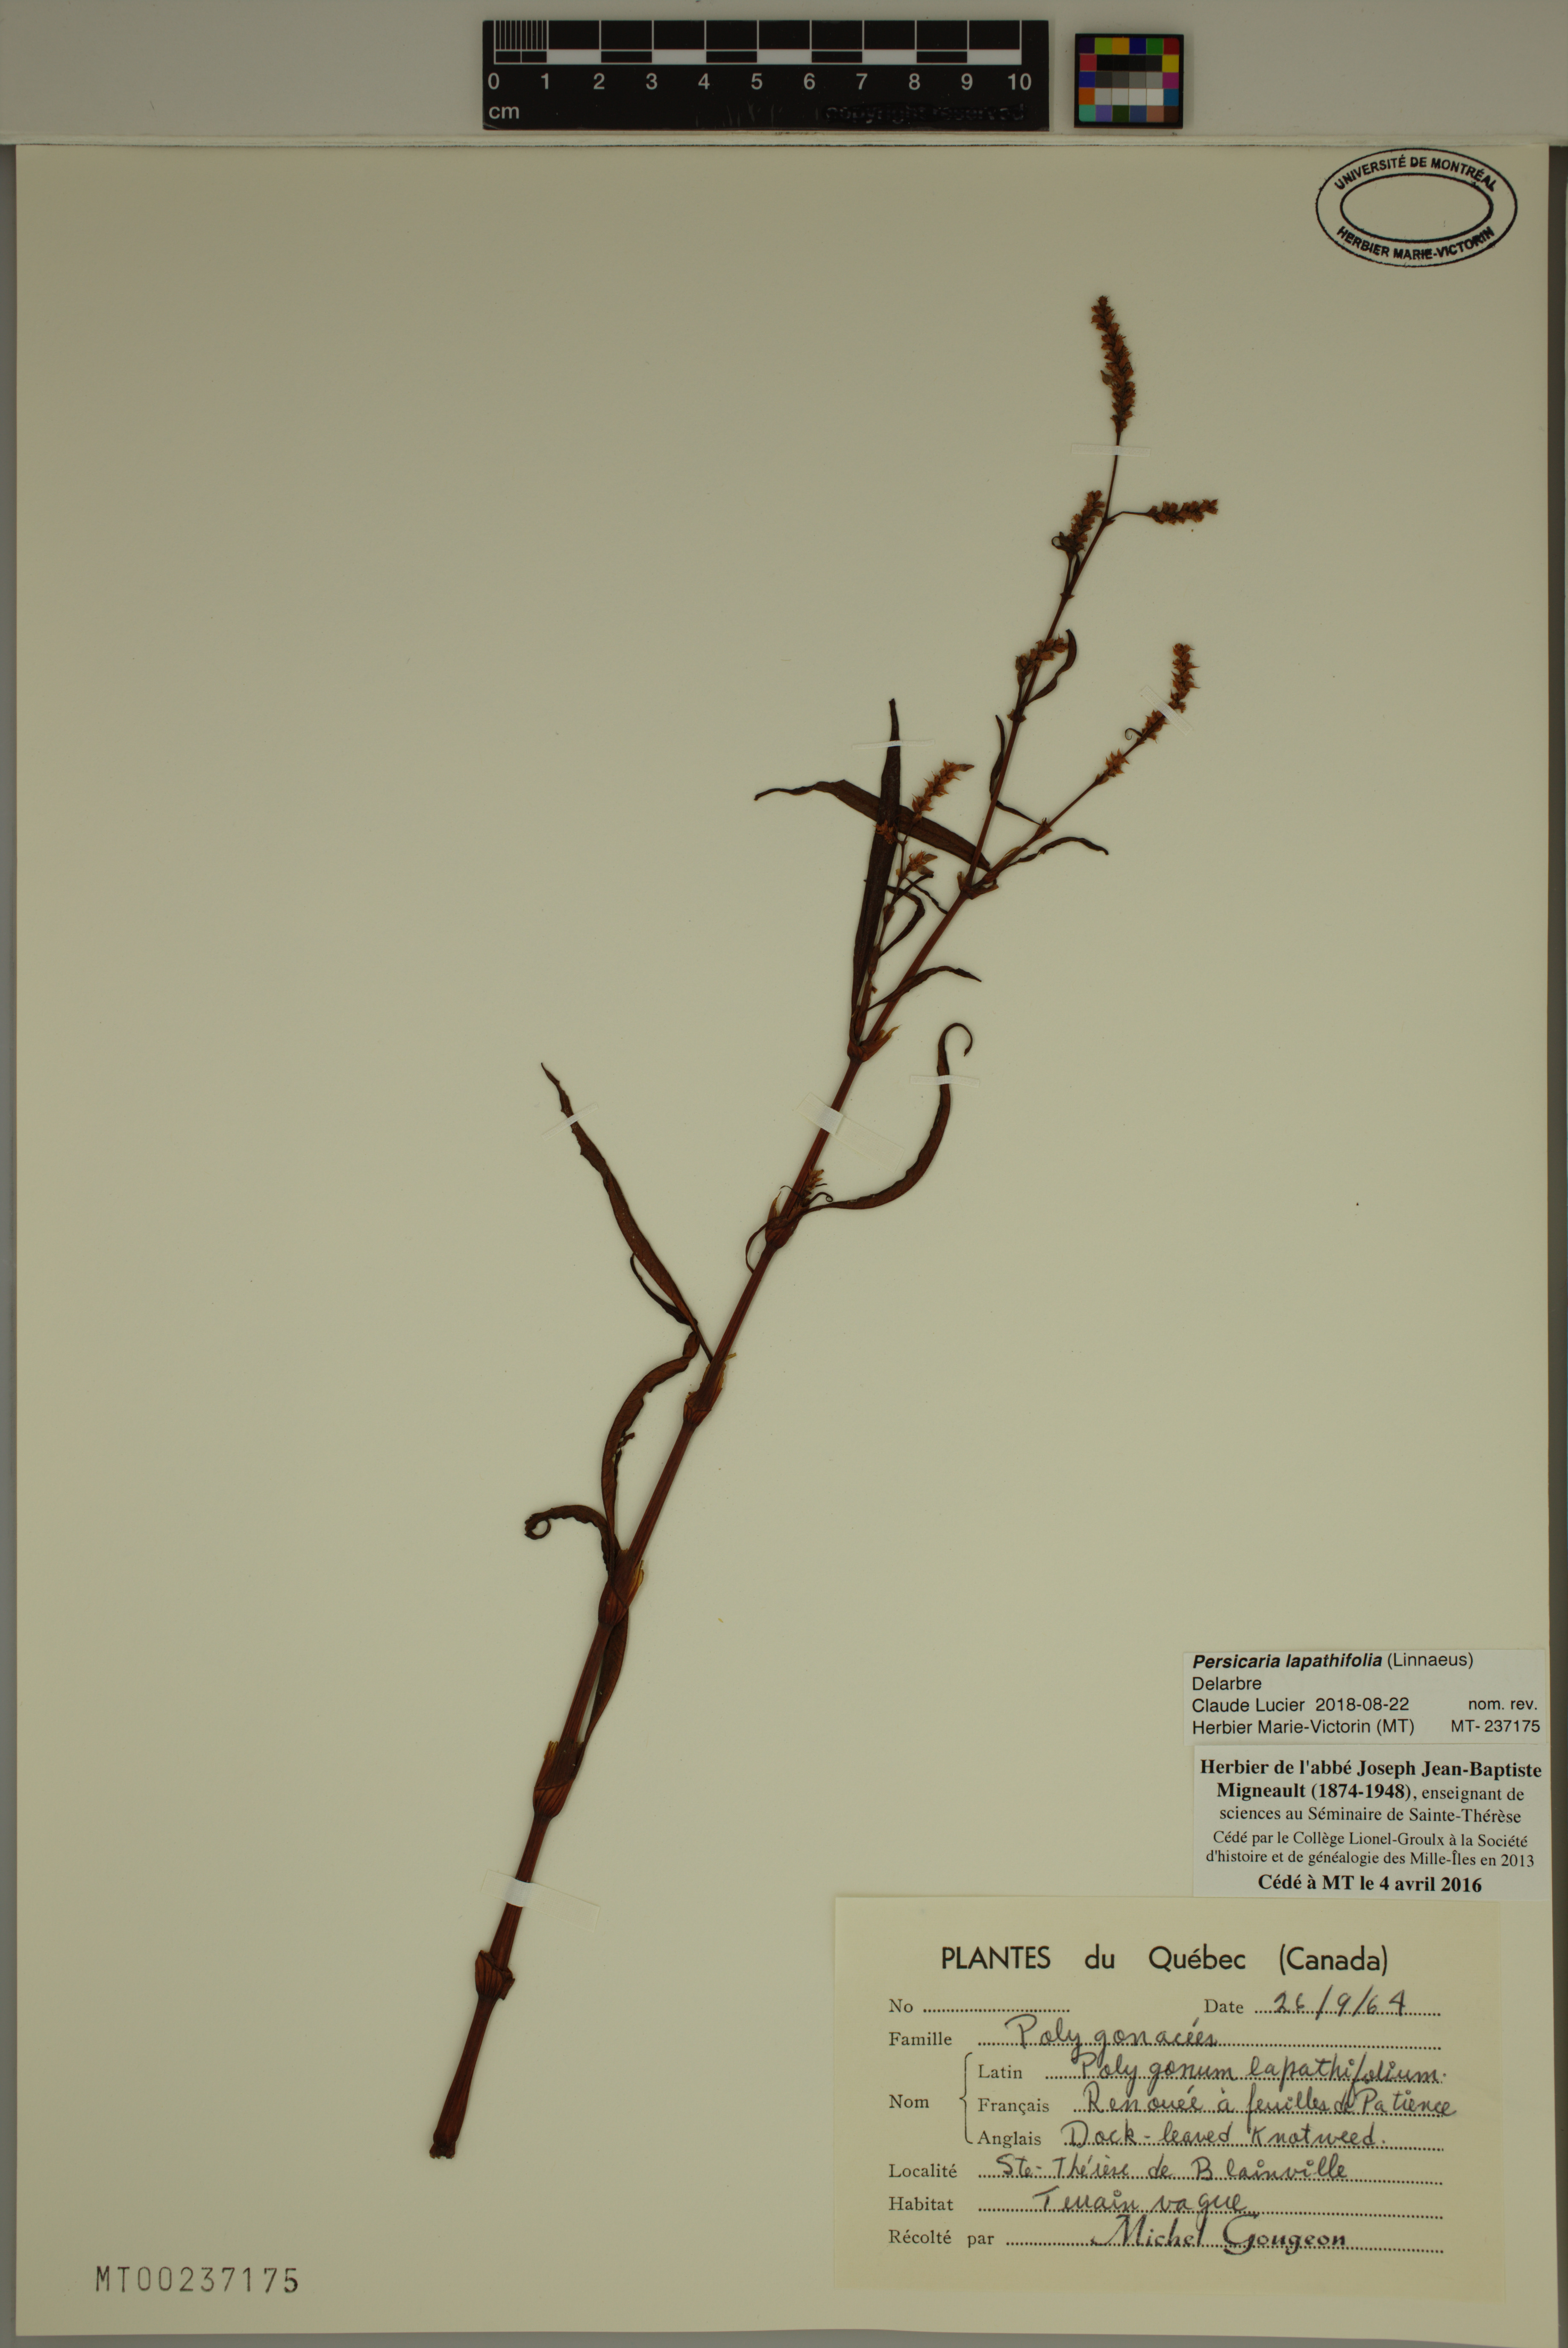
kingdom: Plantae
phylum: Tracheophyta
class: Magnoliopsida
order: Caryophyllales
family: Polygonaceae
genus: Persicaria
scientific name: Persicaria lapathifolia
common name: Curlytop knotweed
